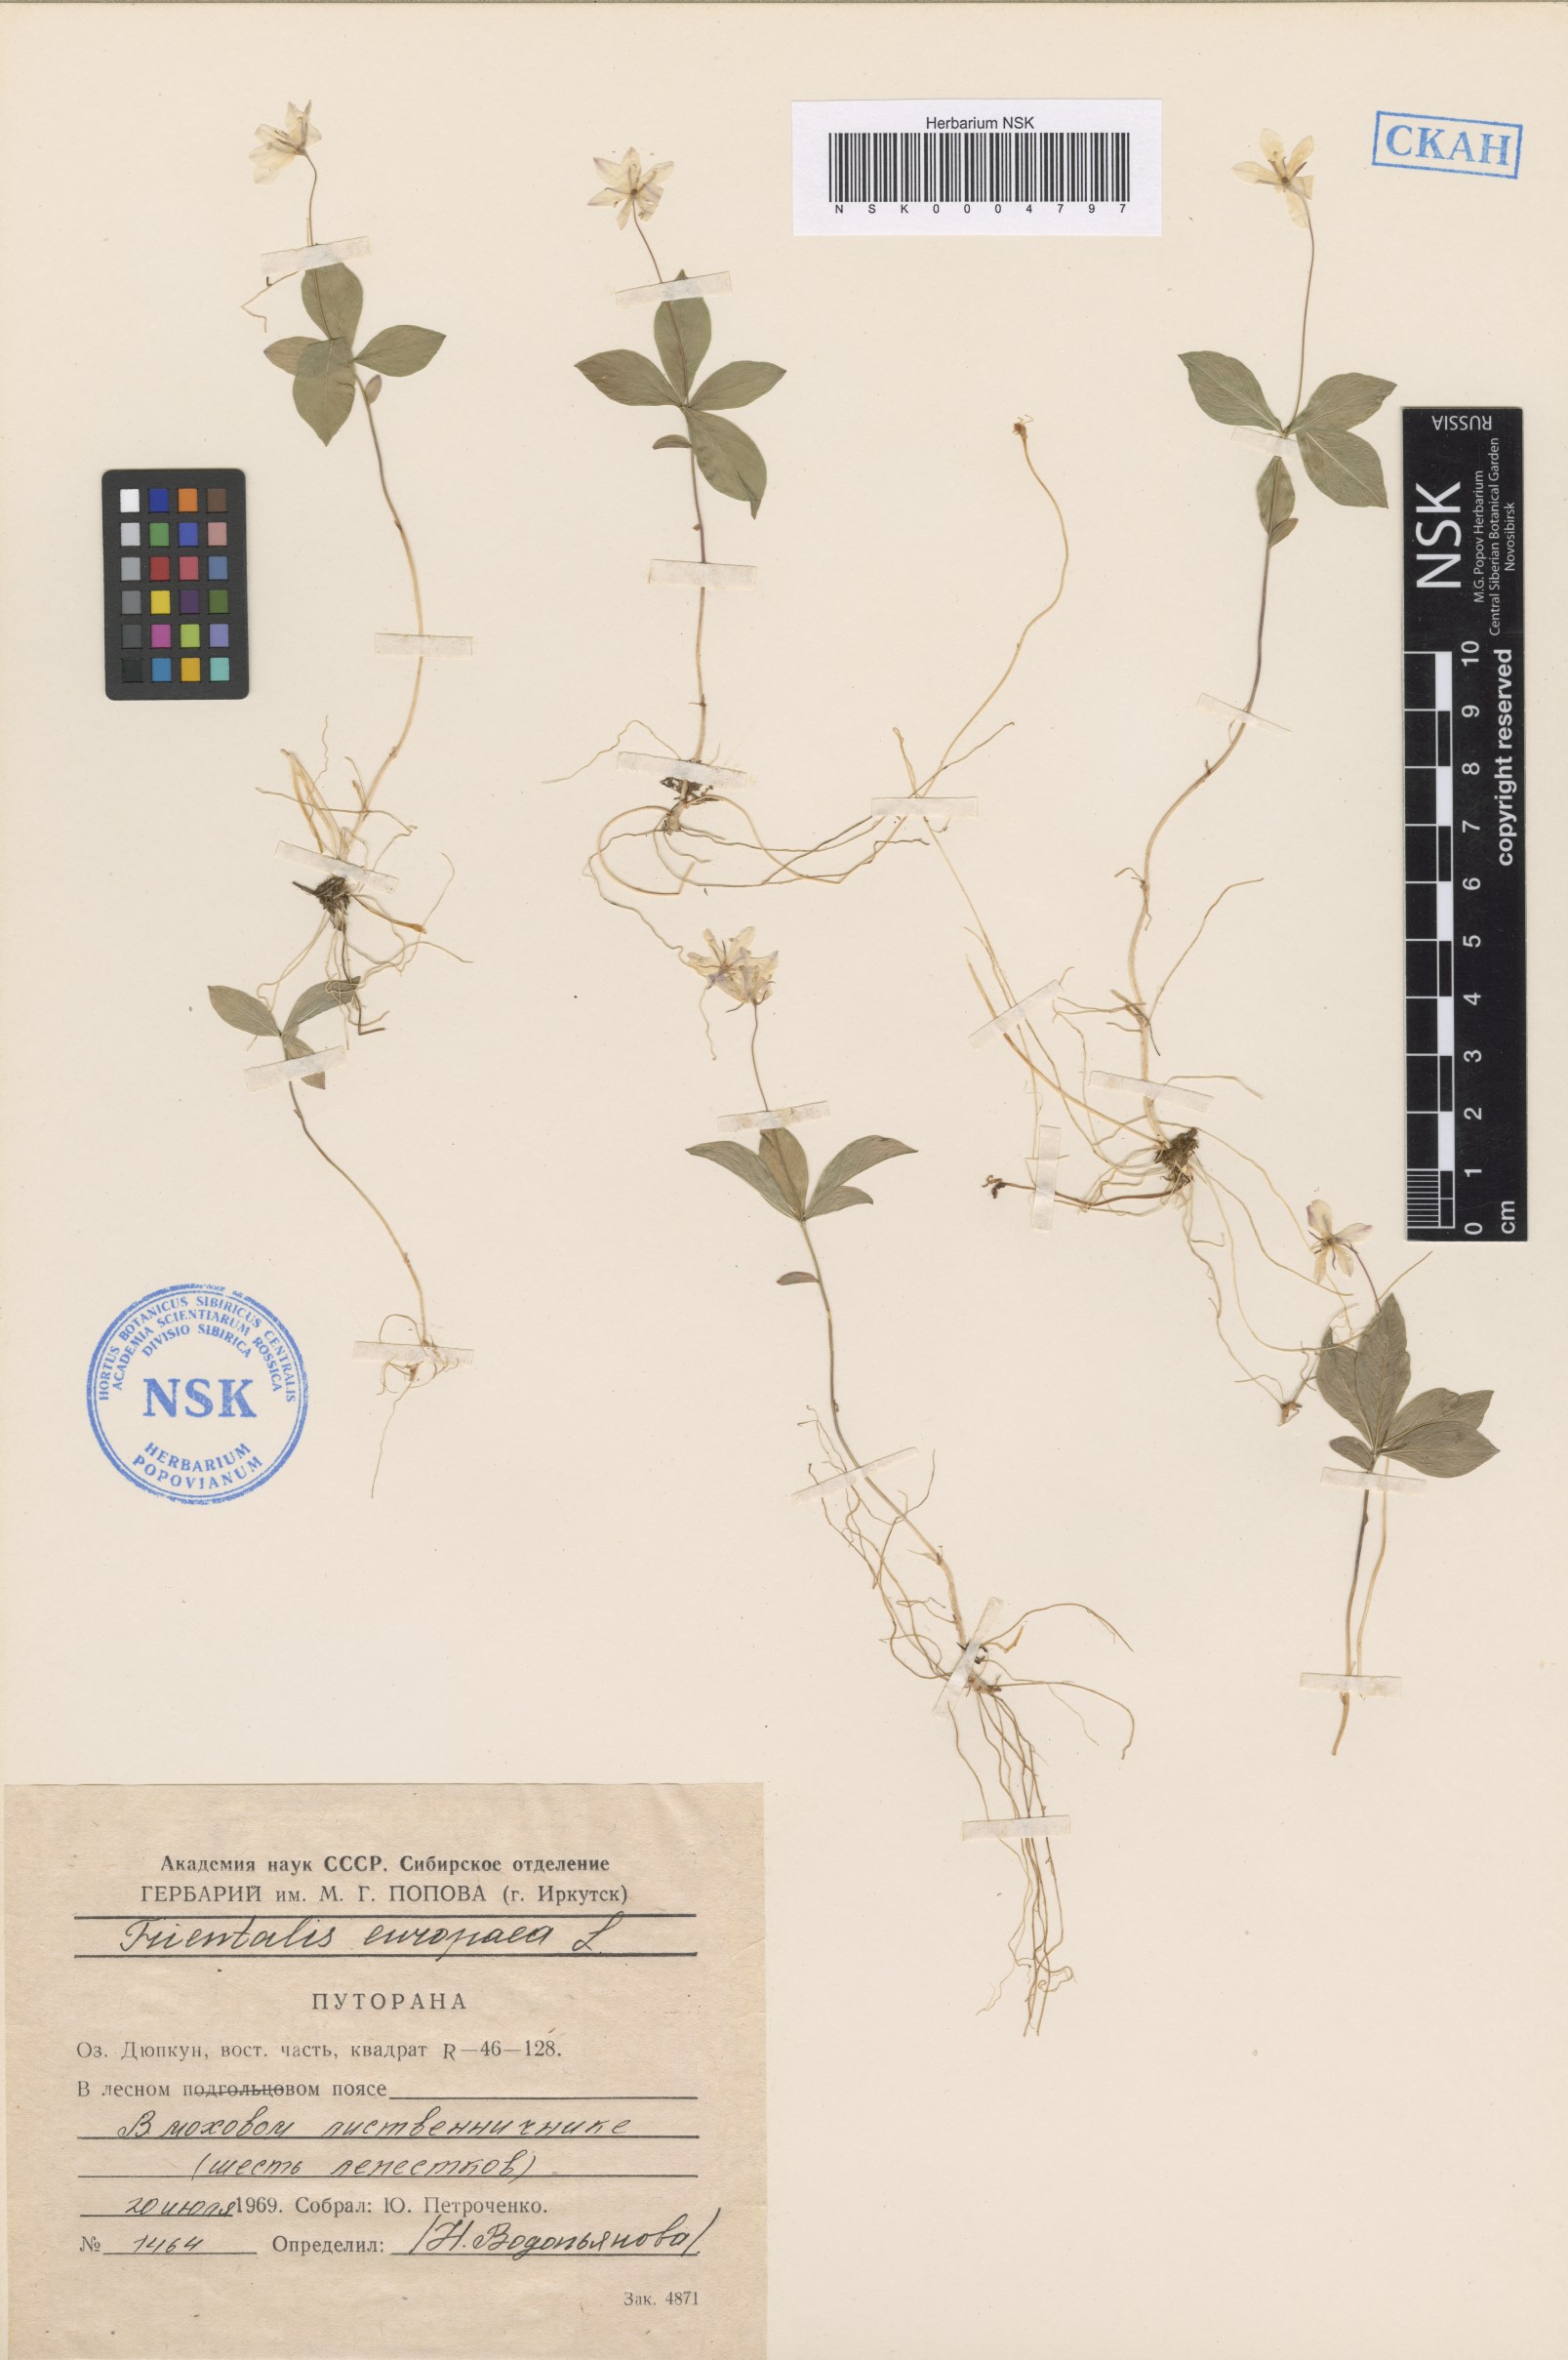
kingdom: Plantae
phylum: Tracheophyta
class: Magnoliopsida
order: Ericales
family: Primulaceae
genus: Lysimachia
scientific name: Lysimachia europaea
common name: Arctic starflower
